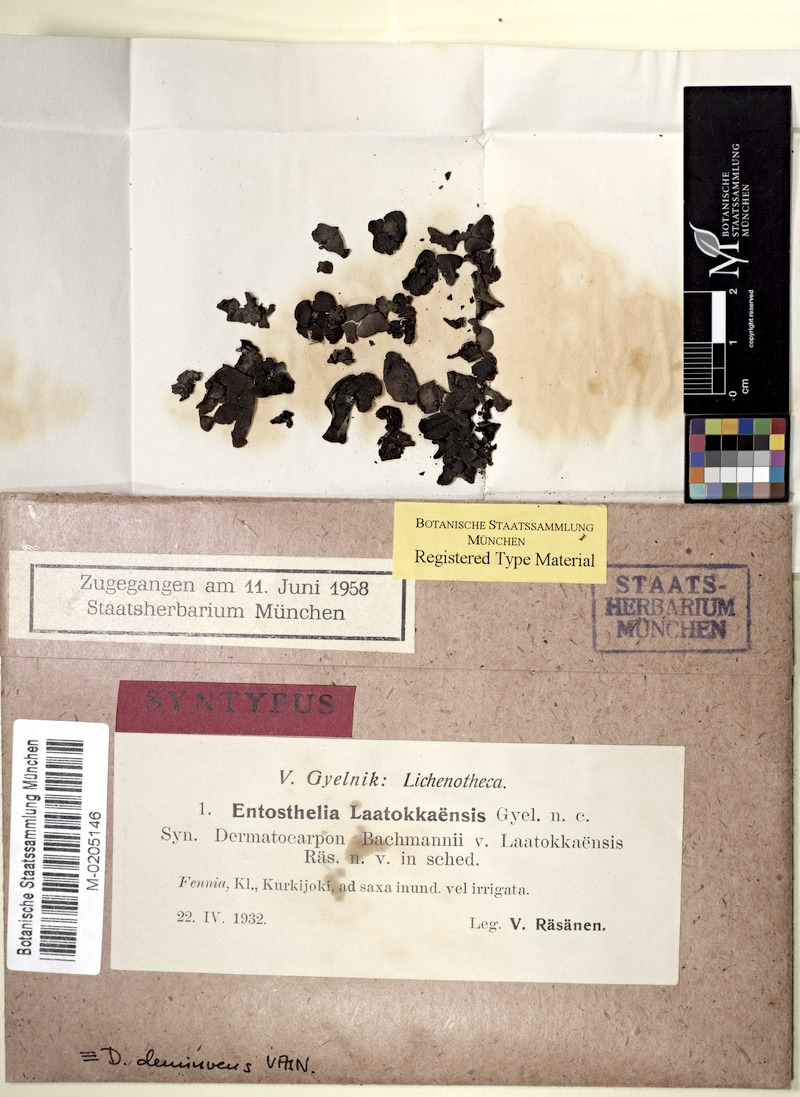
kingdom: Fungi
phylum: Ascomycota
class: Eurotiomycetes
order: Verrucariales
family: Verrucariaceae
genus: Dermatocarpon
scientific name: Dermatocarpon deminuens
